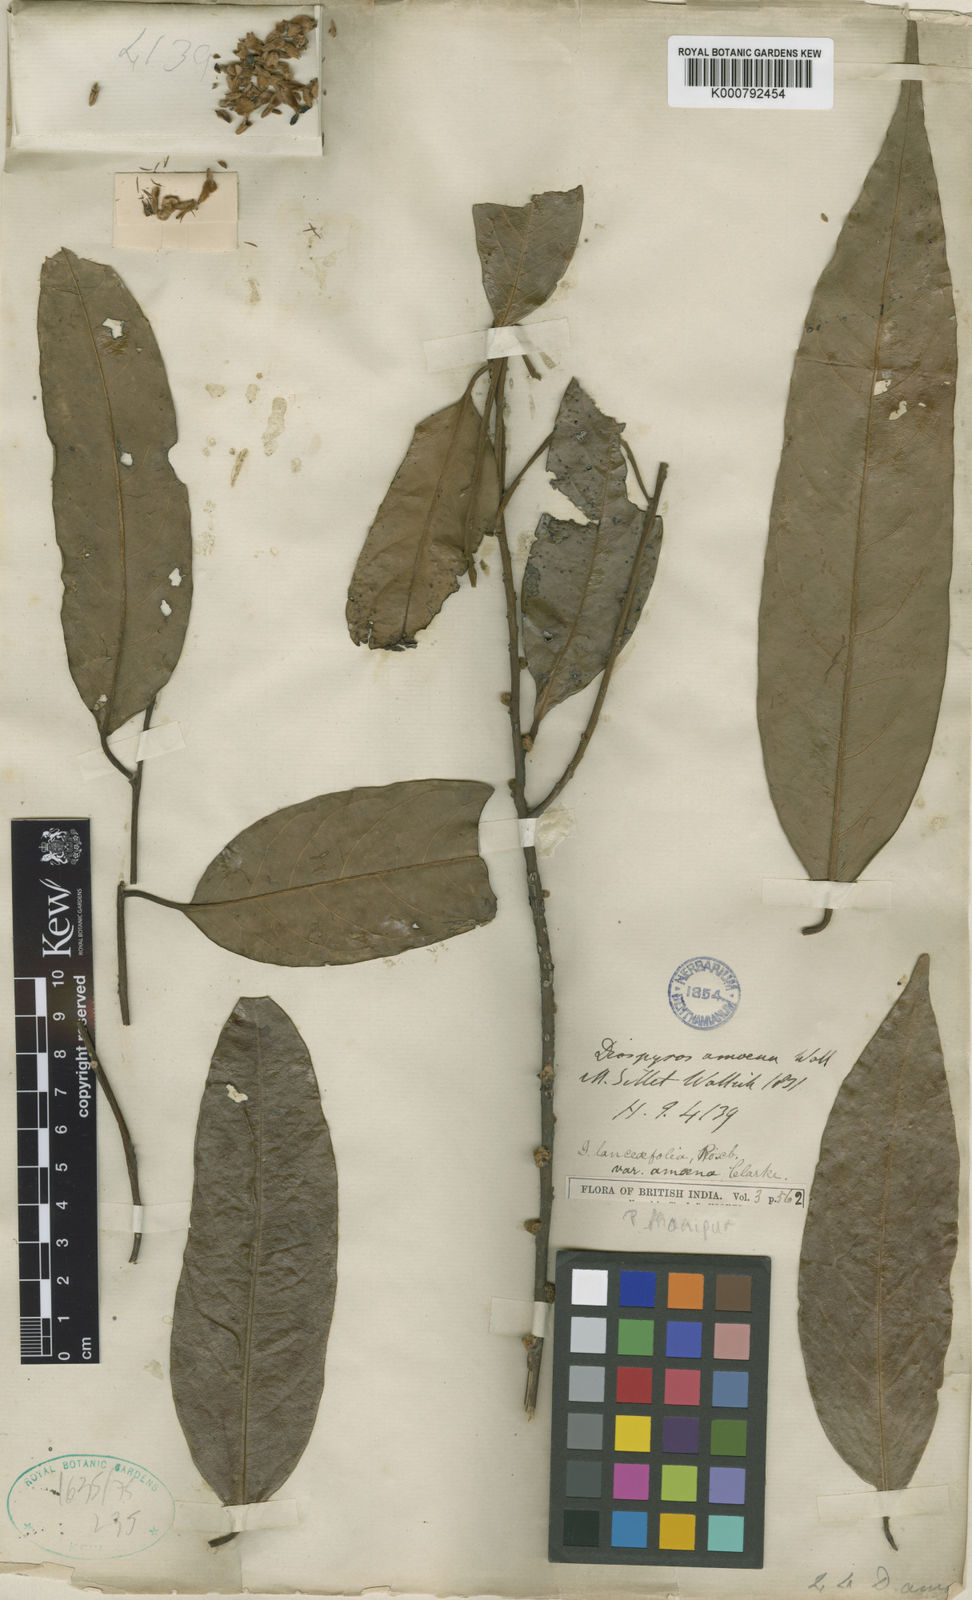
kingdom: Plantae
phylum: Tracheophyta
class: Magnoliopsida
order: Ericales
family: Ebenaceae
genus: Diospyros
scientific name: Diospyros lanceifolia
